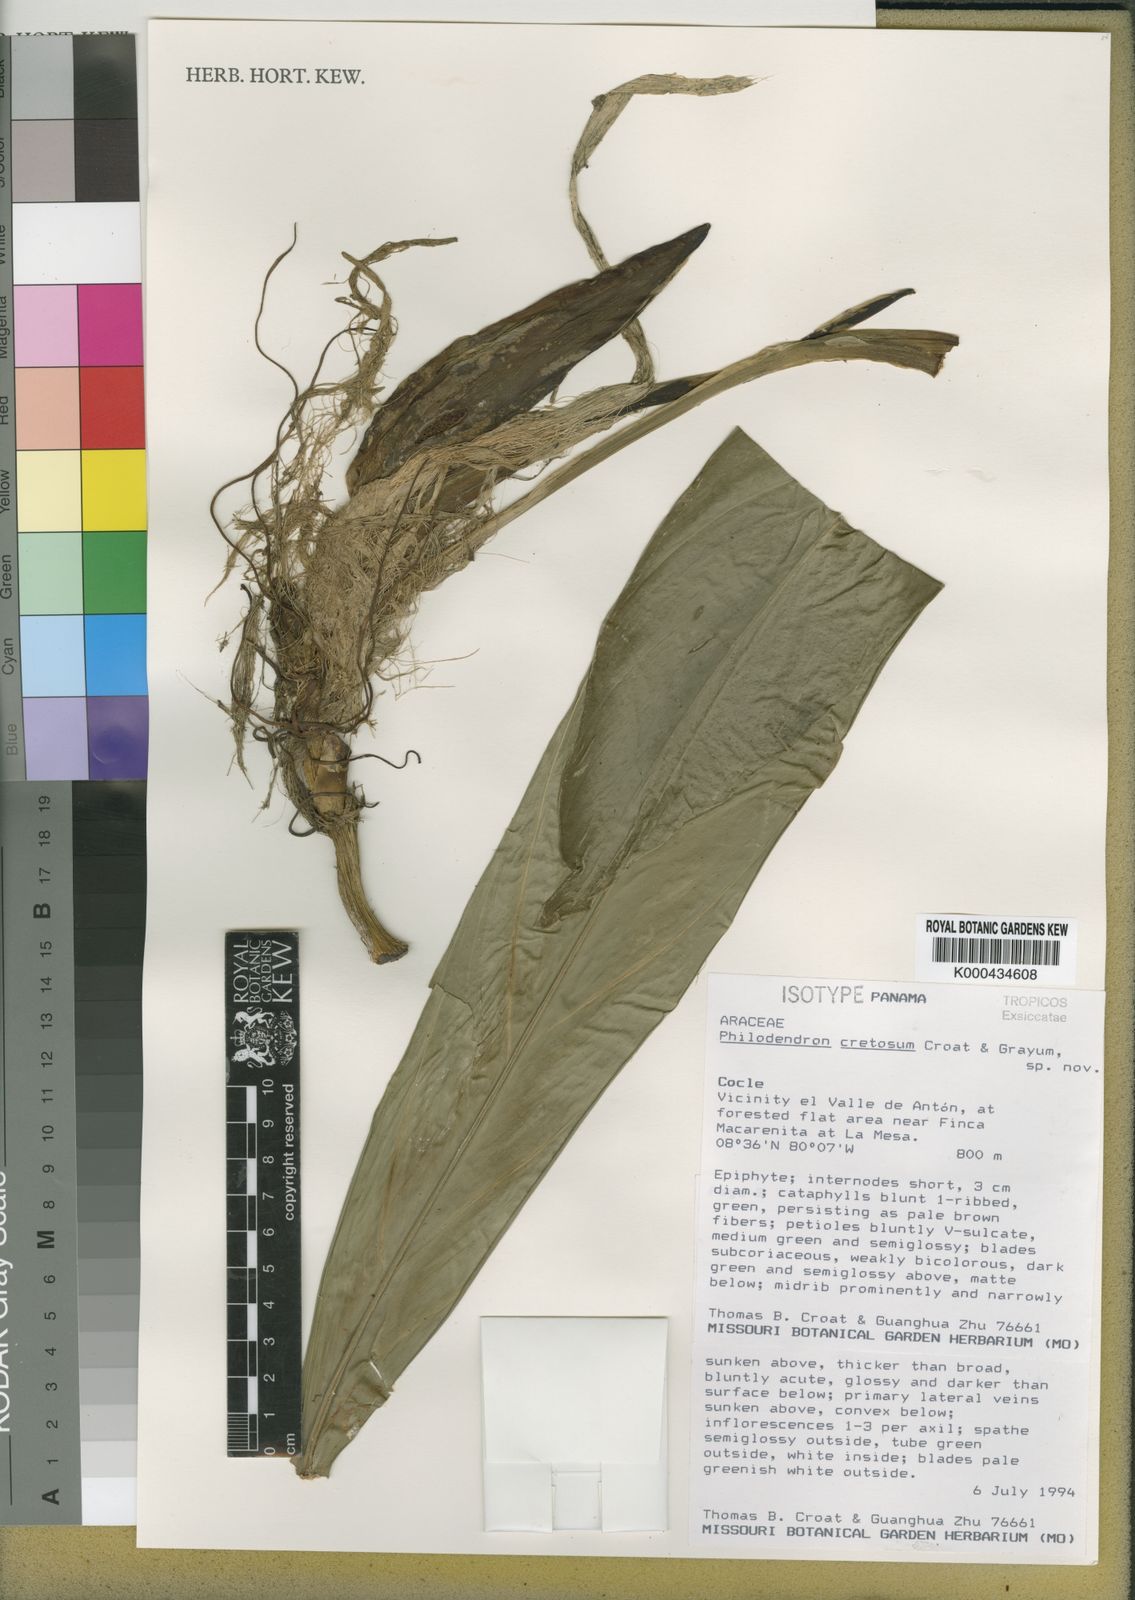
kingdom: Plantae
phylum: Tracheophyta
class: Liliopsida
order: Alismatales
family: Araceae
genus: Philodendron
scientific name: Philodendron cretosum
